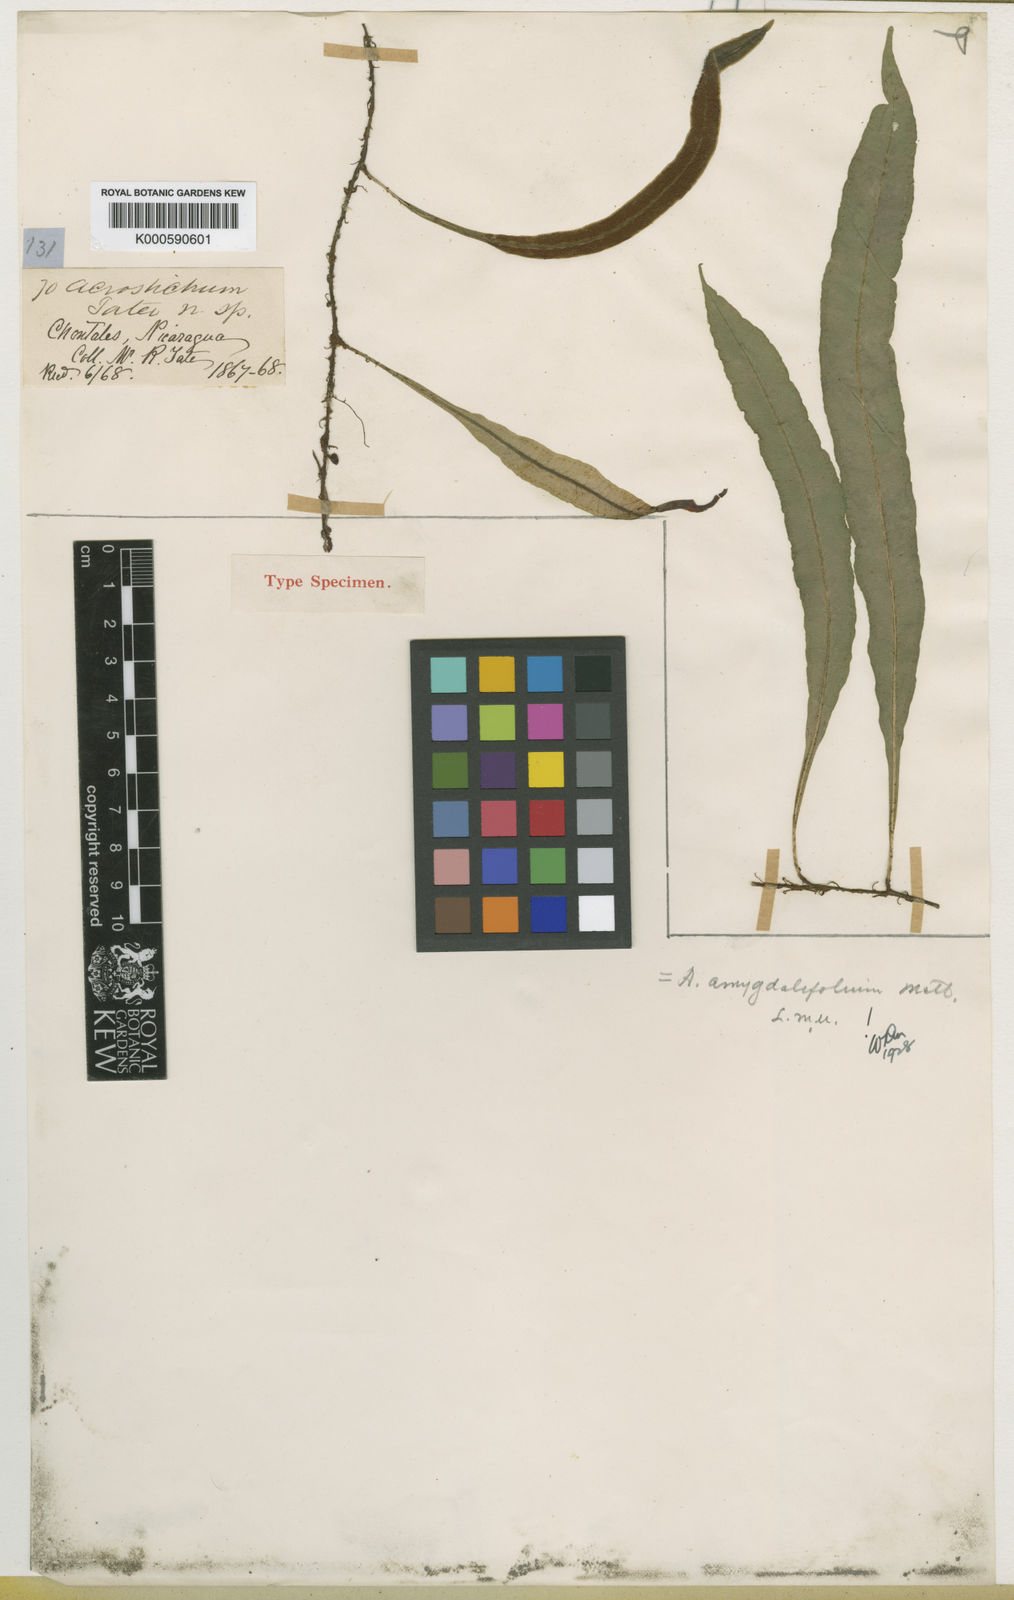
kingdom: Plantae
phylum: Tracheophyta
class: Polypodiopsida
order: Polypodiales
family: Dryopteridaceae
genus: Elaphoglossum
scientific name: Elaphoglossum amygdalifolium
